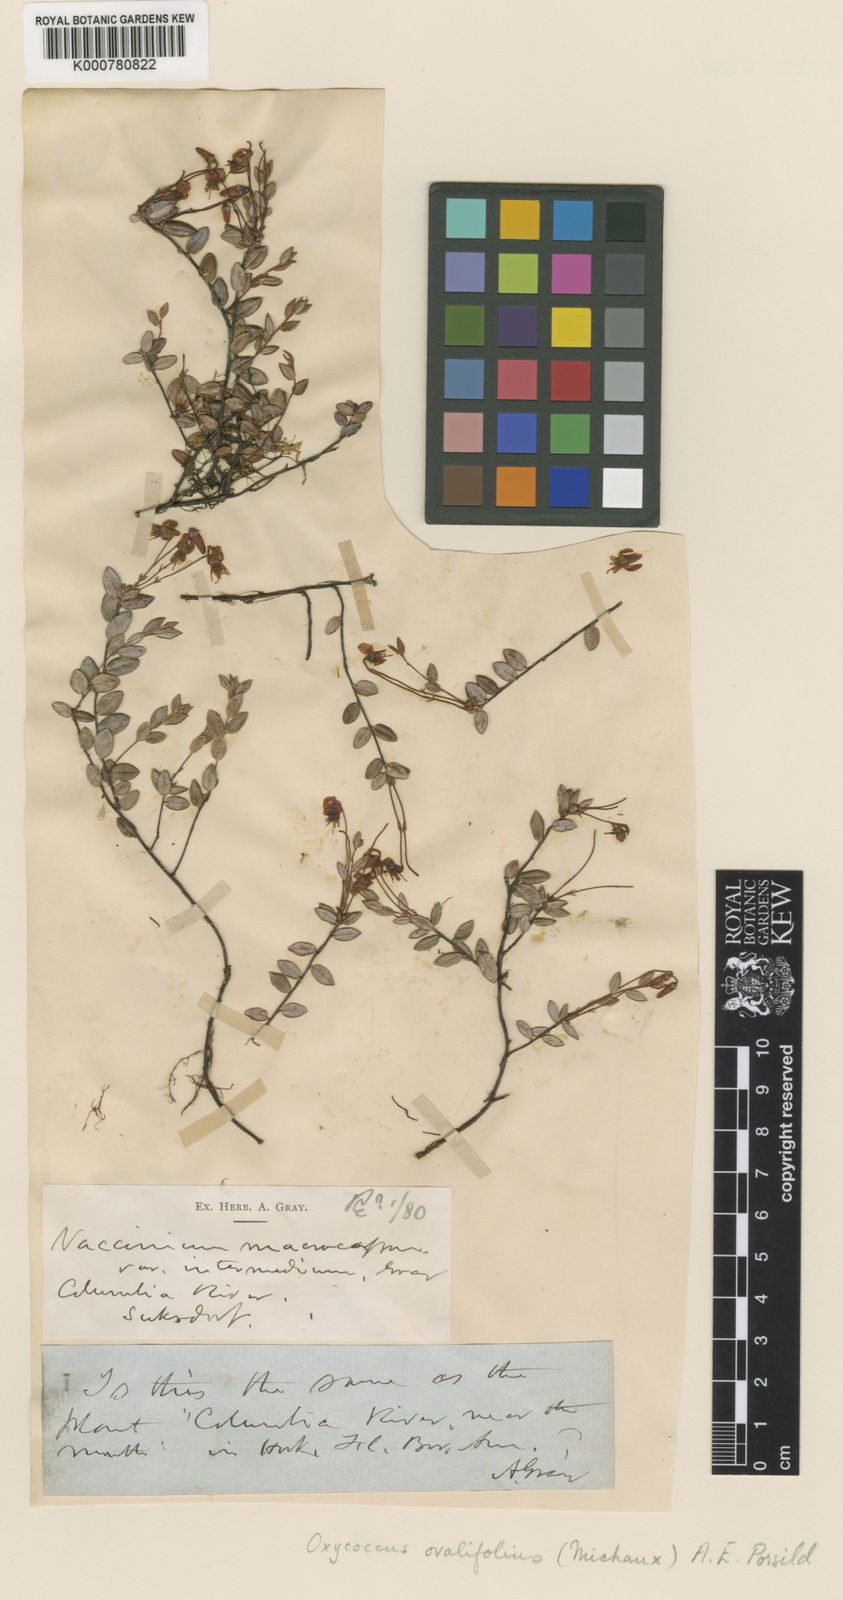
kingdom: Plantae
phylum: Tracheophyta
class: Magnoliopsida
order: Ericales
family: Ericaceae
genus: Vaccinium
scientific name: Vaccinium oxycoccos
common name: Cranberry
